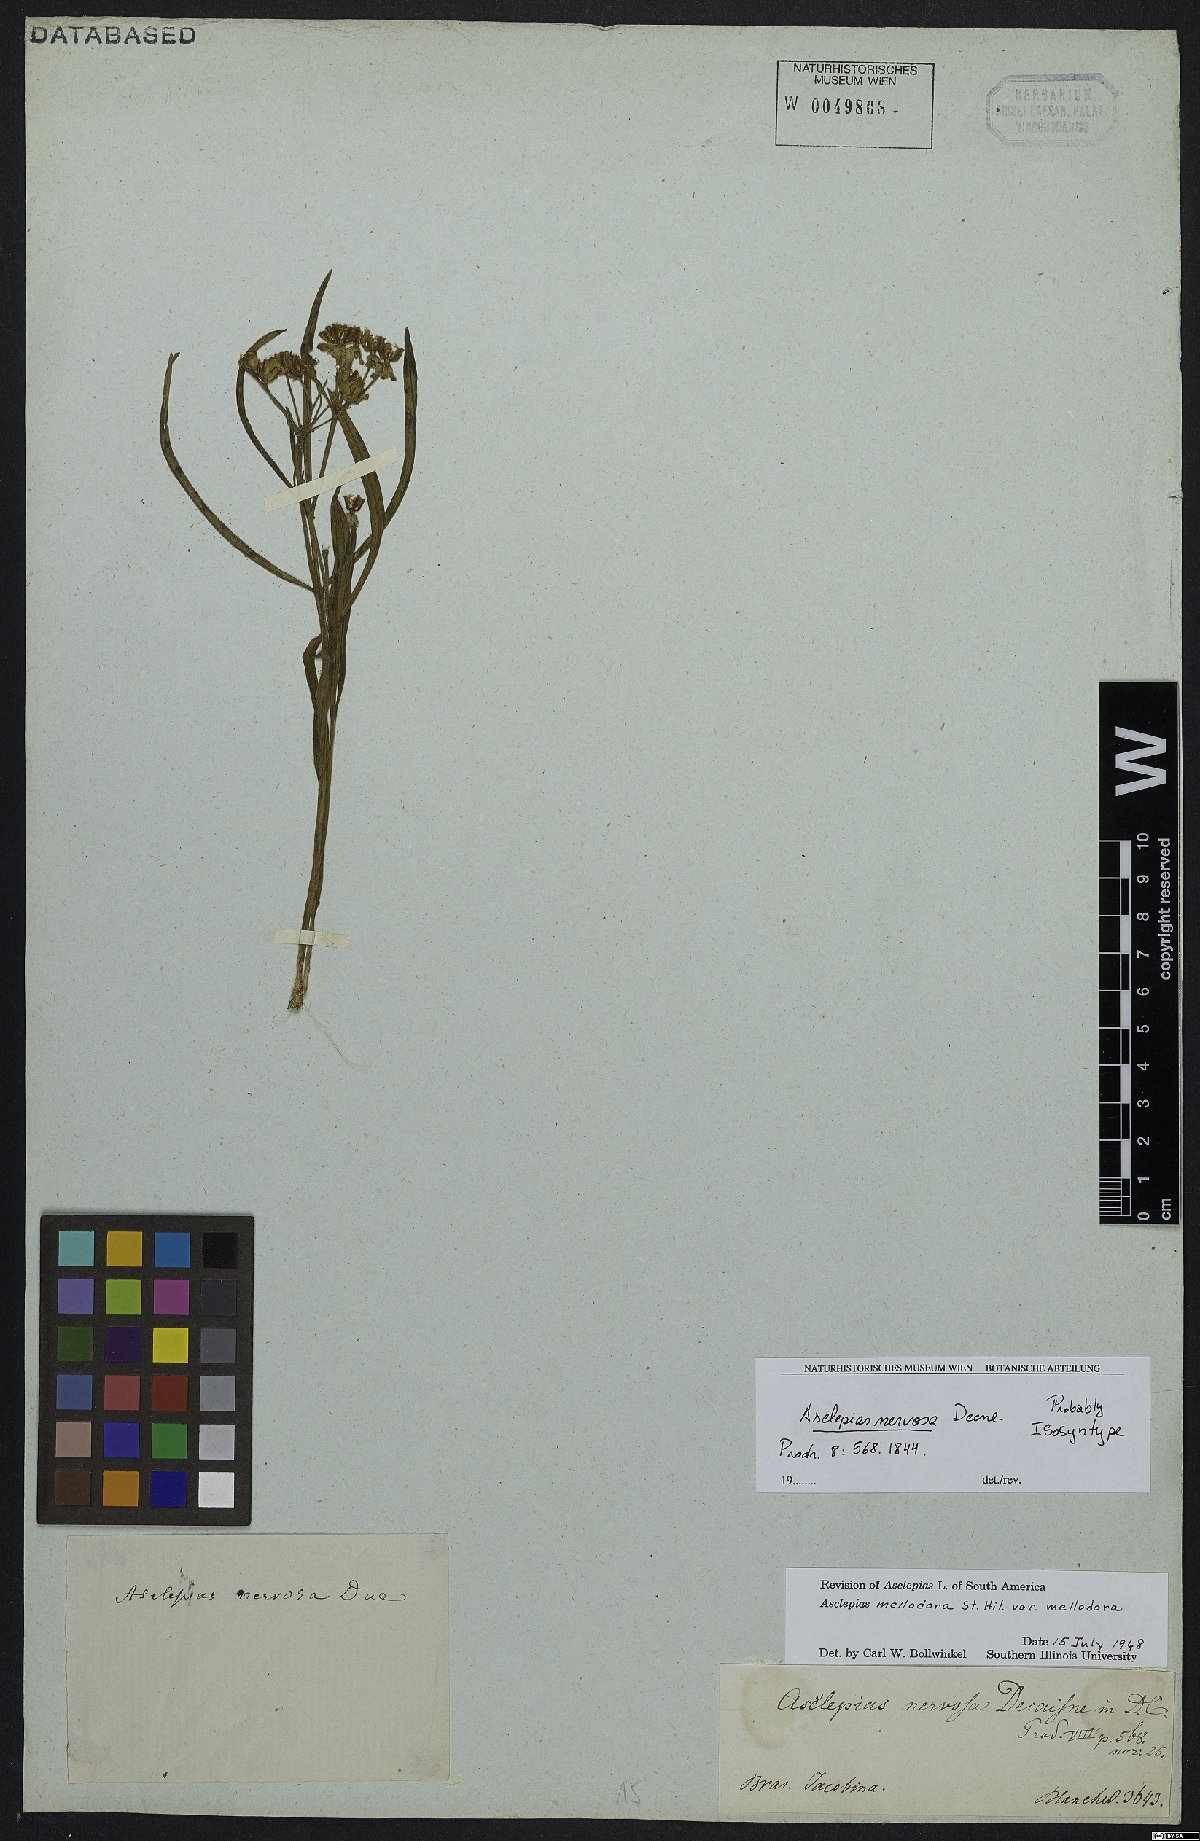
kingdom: Plantae
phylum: Tracheophyta
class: Magnoliopsida
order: Gentianales
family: Apocynaceae
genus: Asclepias
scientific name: Asclepias mellodora
